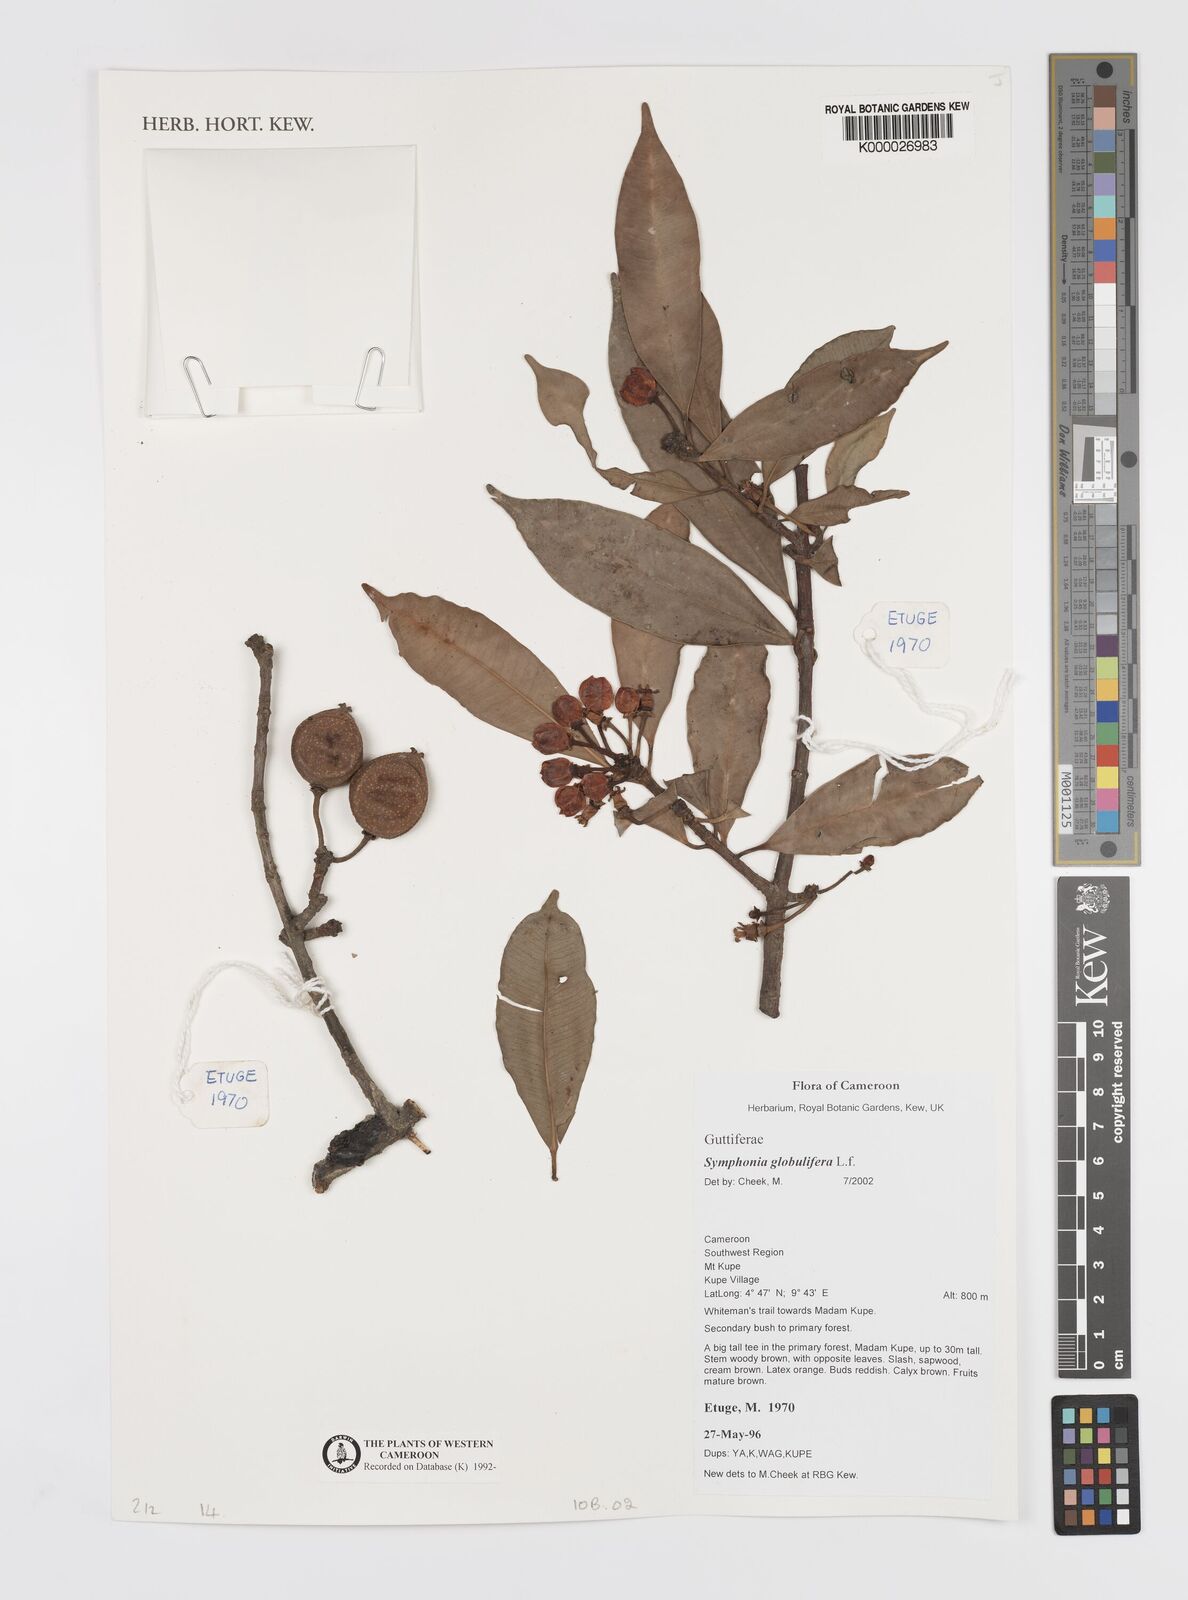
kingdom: Plantae
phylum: Tracheophyta
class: Magnoliopsida
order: Malpighiales
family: Clusiaceae
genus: Symphonia
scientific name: Symphonia globulifera
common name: Boarwood
